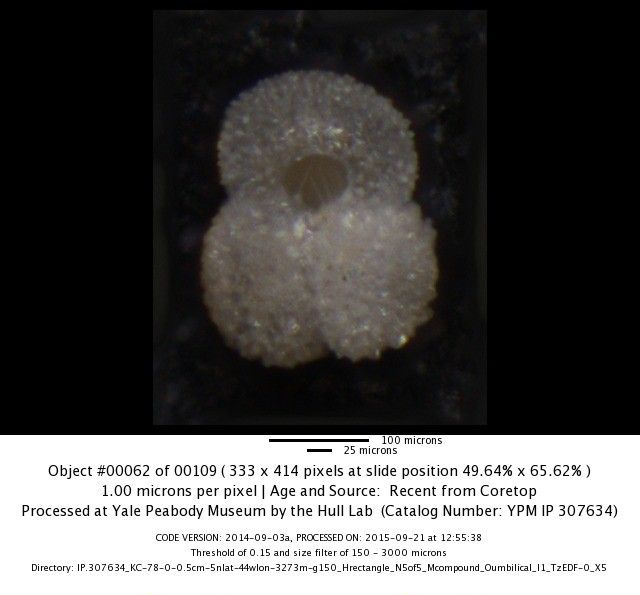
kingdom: Chromista
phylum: Foraminifera
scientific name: Foraminifera
